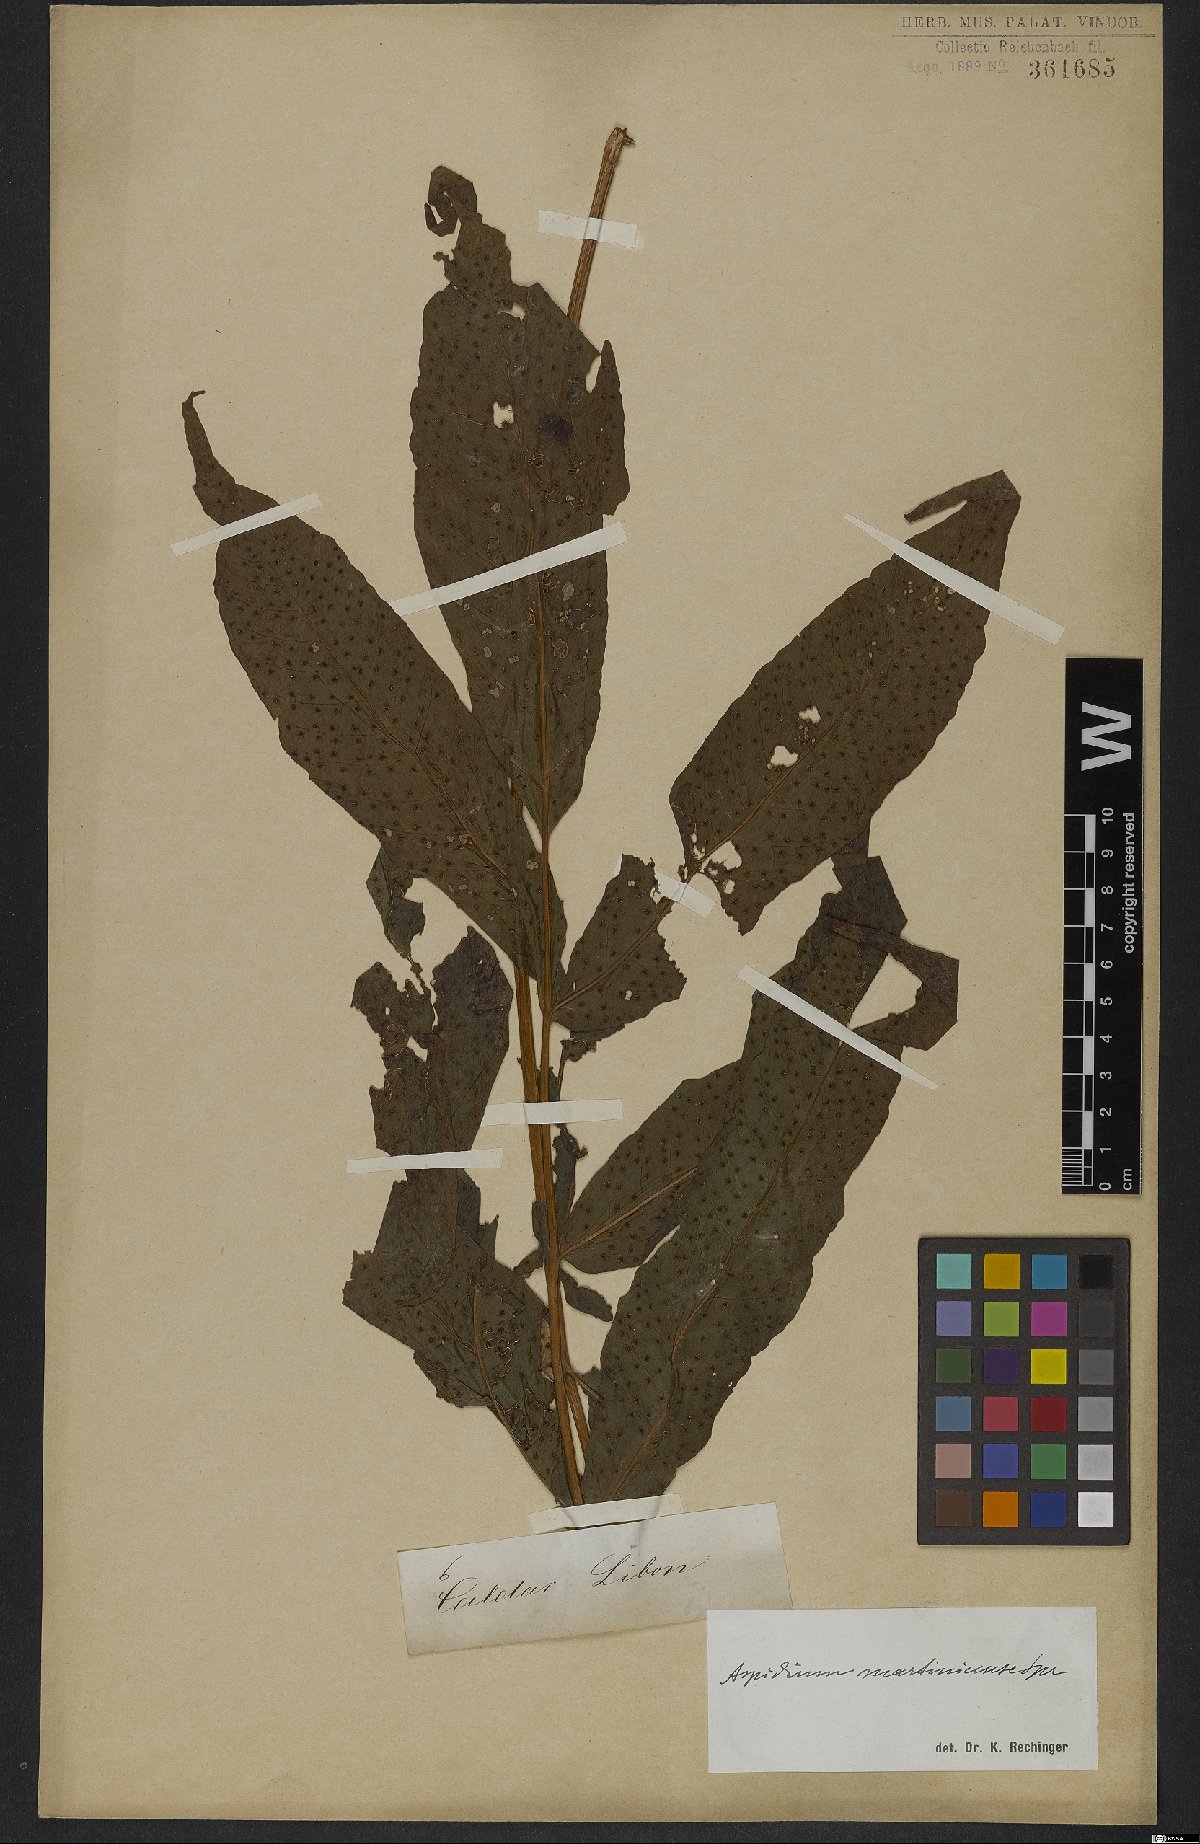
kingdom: Plantae
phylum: Tracheophyta
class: Polypodiopsida
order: Polypodiales
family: Tectariaceae
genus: Tectaria
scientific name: Tectaria incisa
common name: Incised halberd fern
